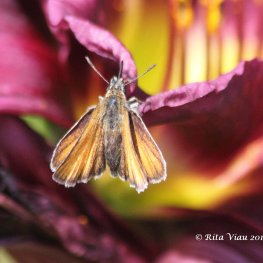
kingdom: Animalia
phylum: Arthropoda
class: Insecta
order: Lepidoptera
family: Hesperiidae
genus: Thymelicus
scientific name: Thymelicus lineola
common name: European Skipper
